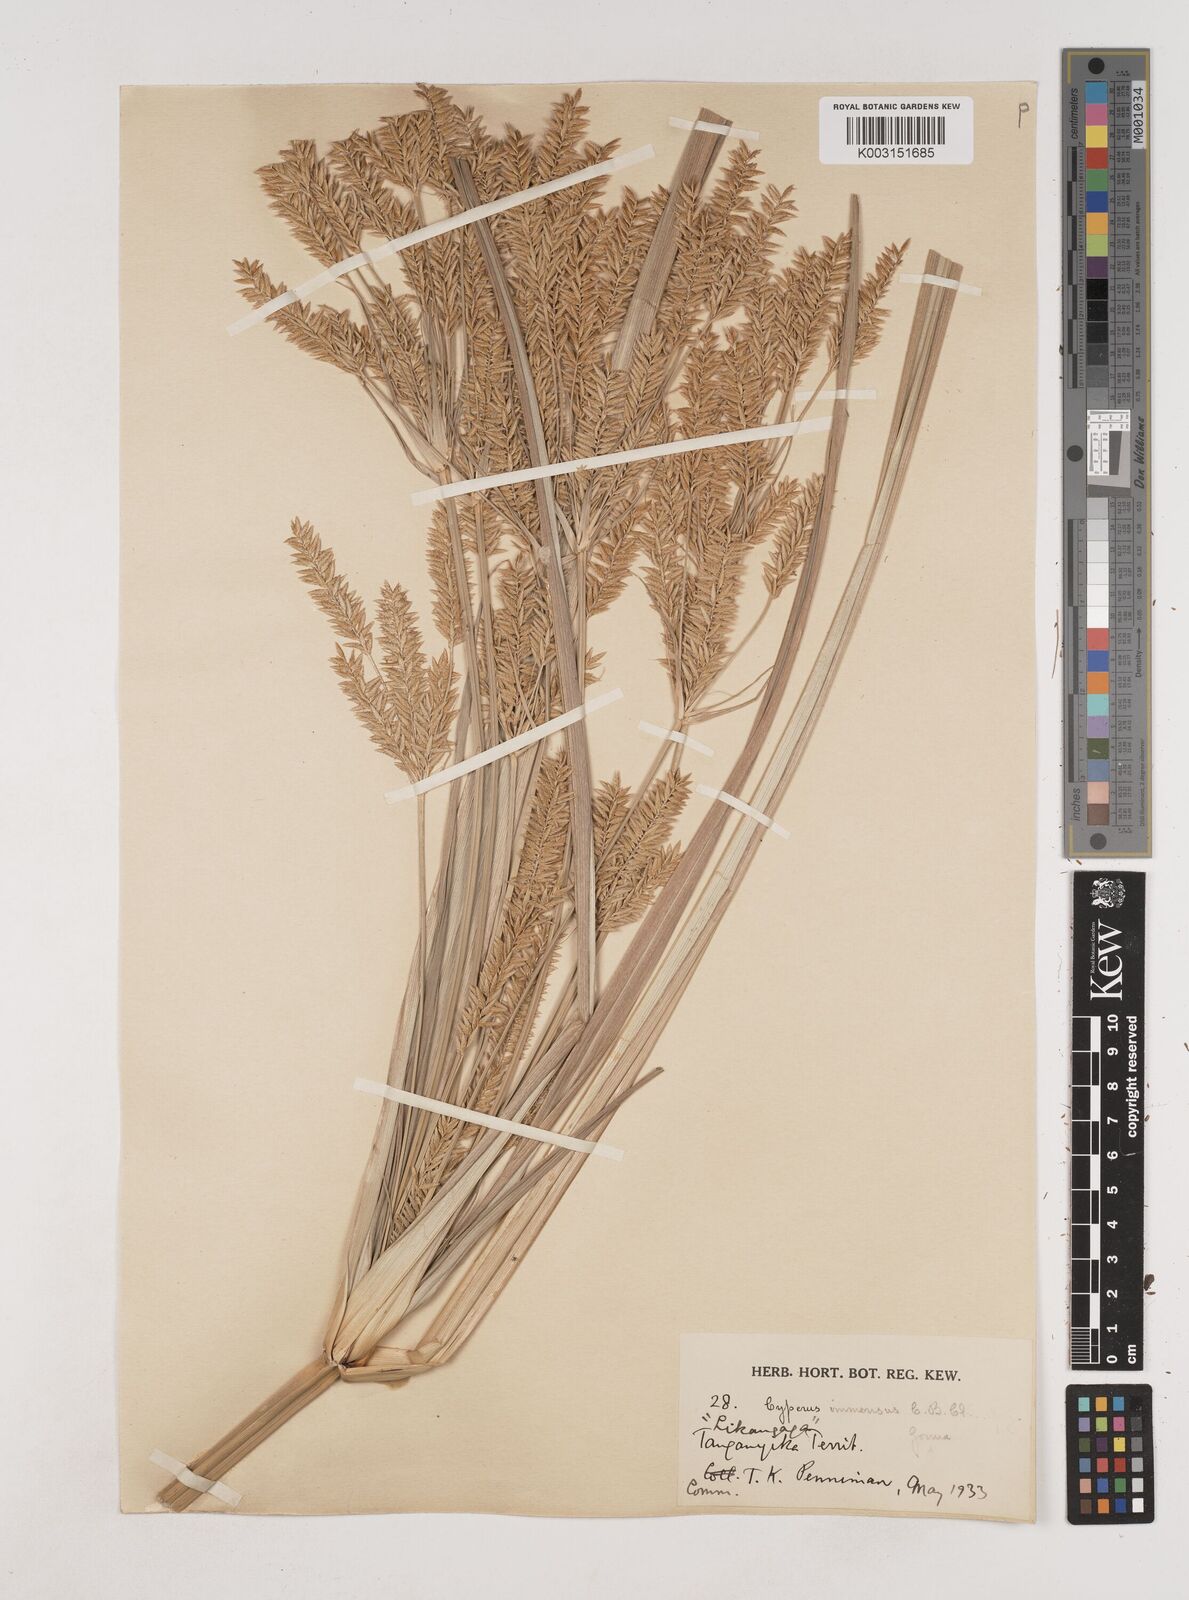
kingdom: Plantae
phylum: Tracheophyta
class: Liliopsida
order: Poales
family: Cyperaceae
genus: Cyperus
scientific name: Cyperus exaltatus
